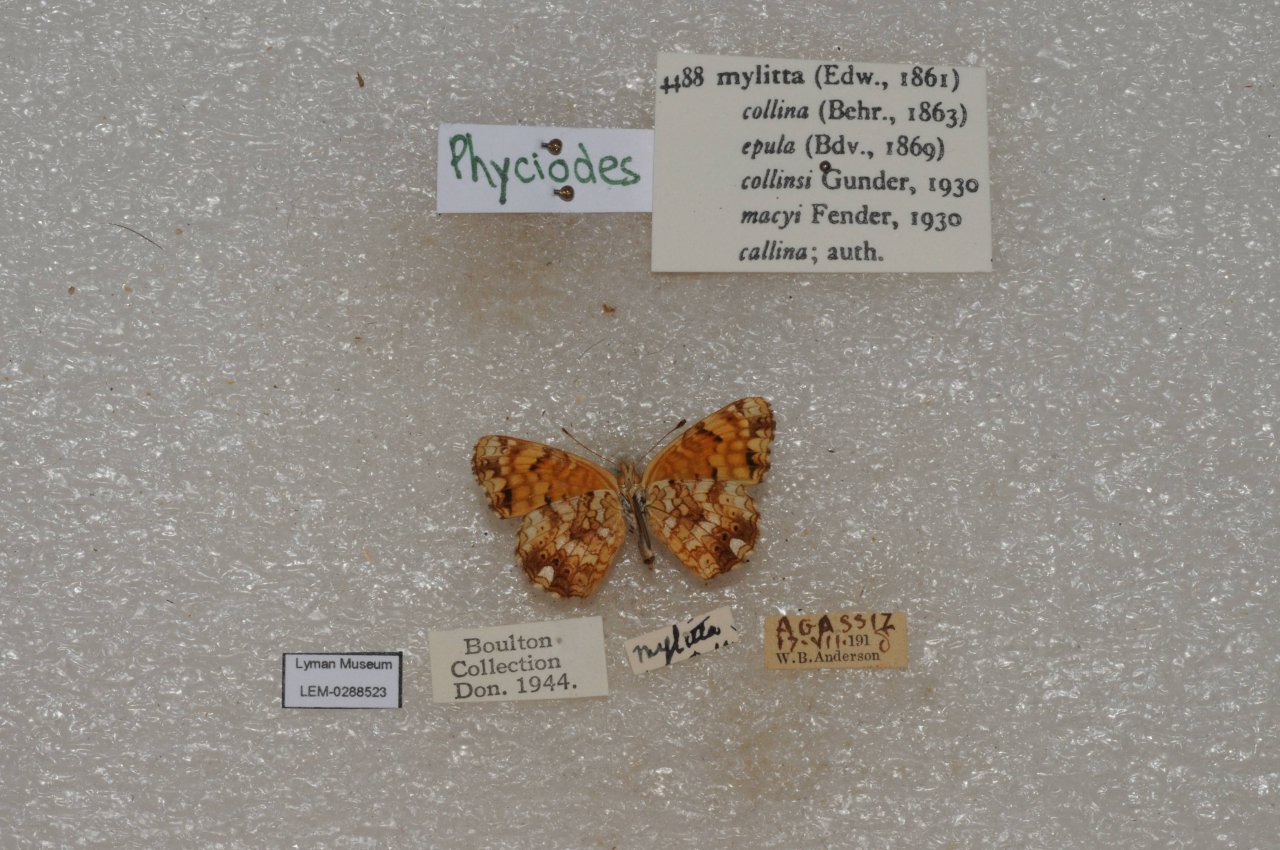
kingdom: Animalia
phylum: Arthropoda
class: Insecta
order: Lepidoptera
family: Nymphalidae
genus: Eresia
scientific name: Eresia aveyrona
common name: Mylitta Crescent
